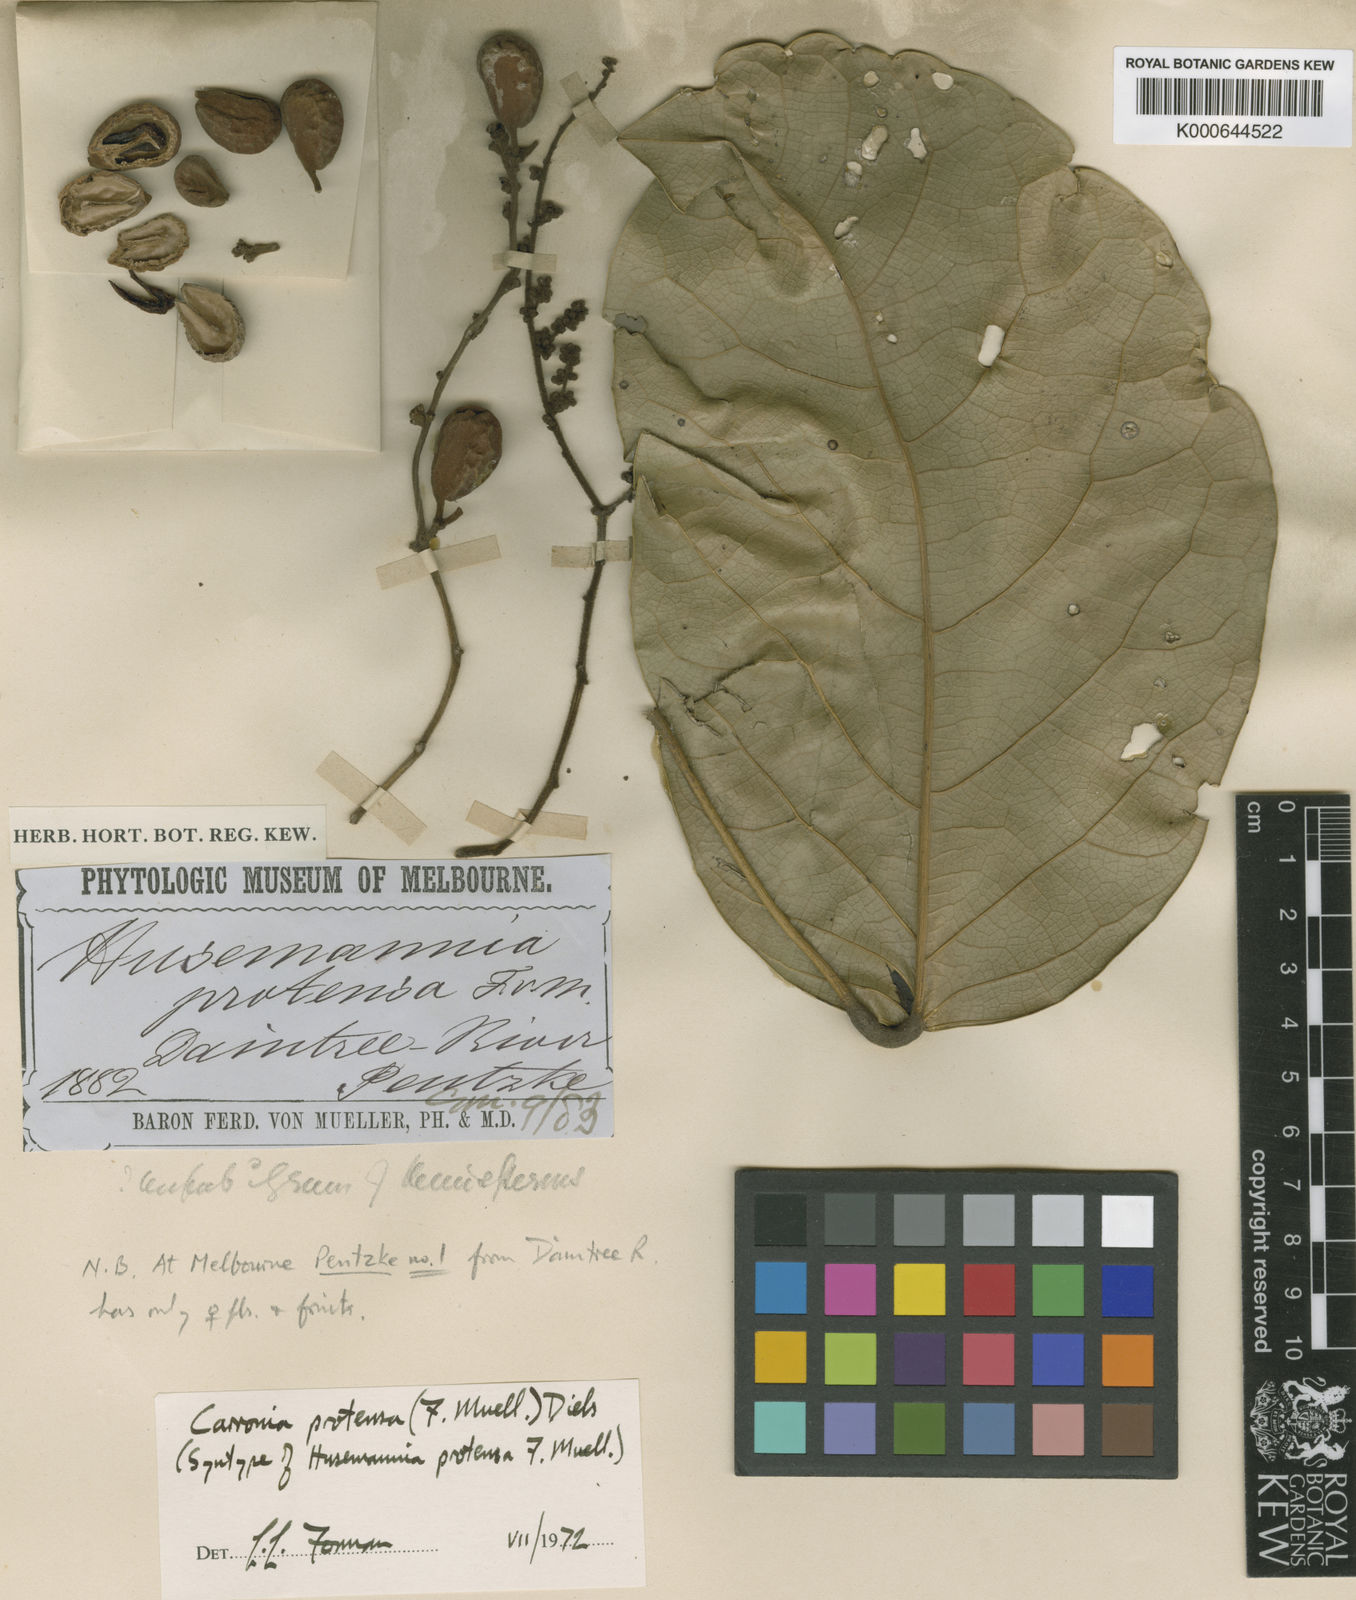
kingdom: Plantae
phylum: Tracheophyta
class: Magnoliopsida
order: Ranunculales
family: Menispermaceae
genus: Carronia
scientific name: Carronia protensa
